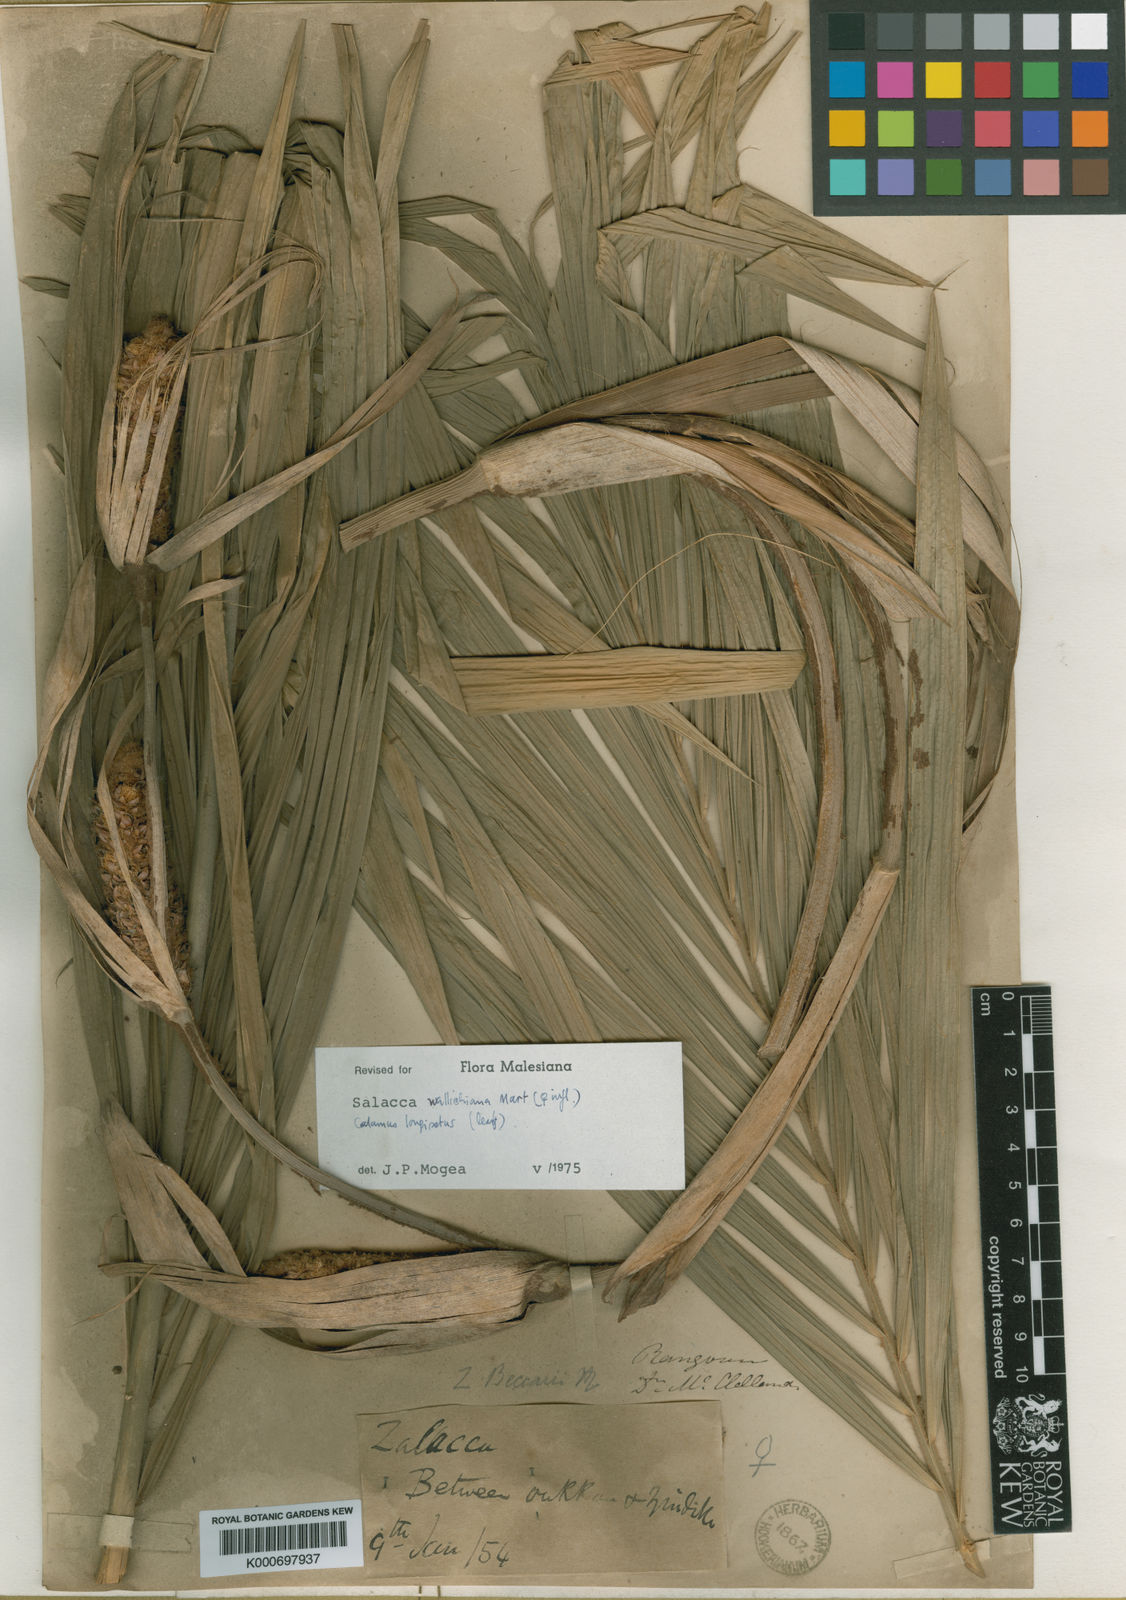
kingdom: Plantae
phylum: Tracheophyta
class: Liliopsida
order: Arecales
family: Arecaceae
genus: Salacca
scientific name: Salacca wallichiana
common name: Rakum palm
